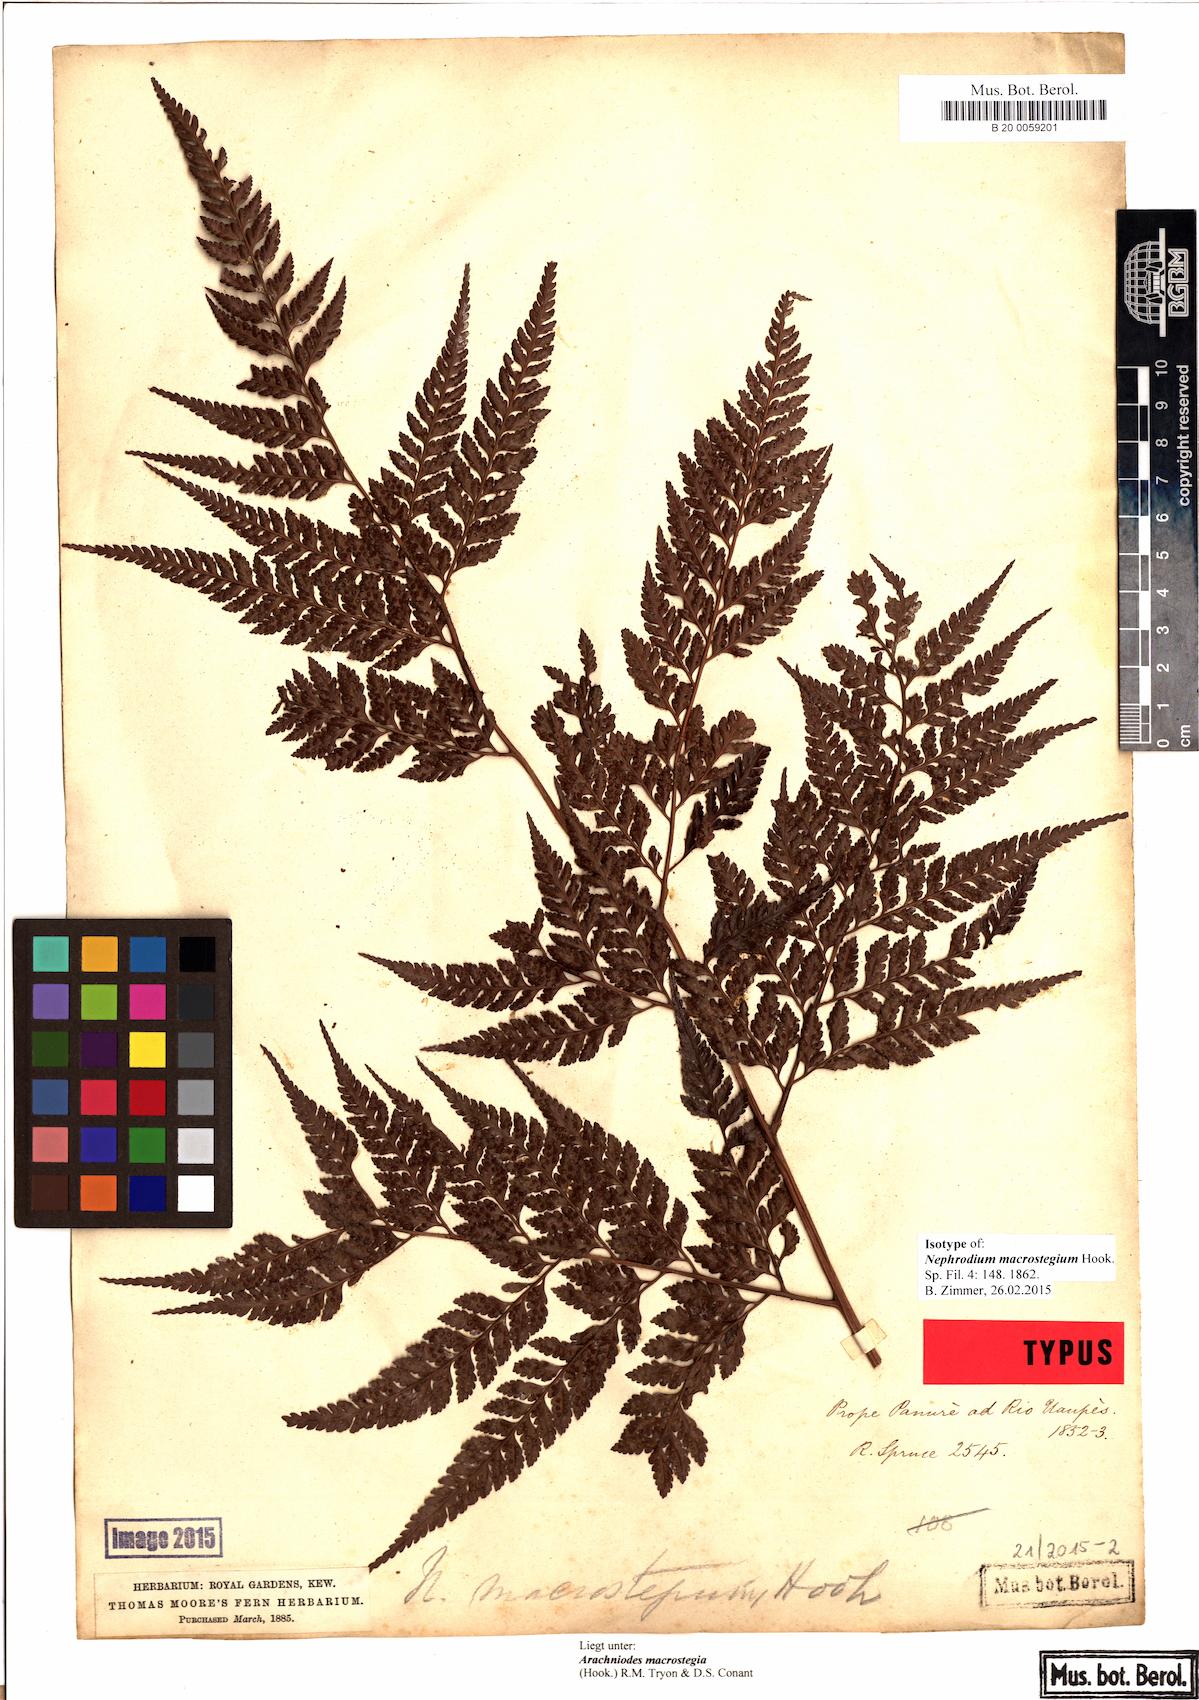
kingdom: Plantae
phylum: Tracheophyta
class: Polypodiopsida
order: Polypodiales
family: Dryopteridaceae
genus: Olfersia
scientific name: Olfersia macrostegia
